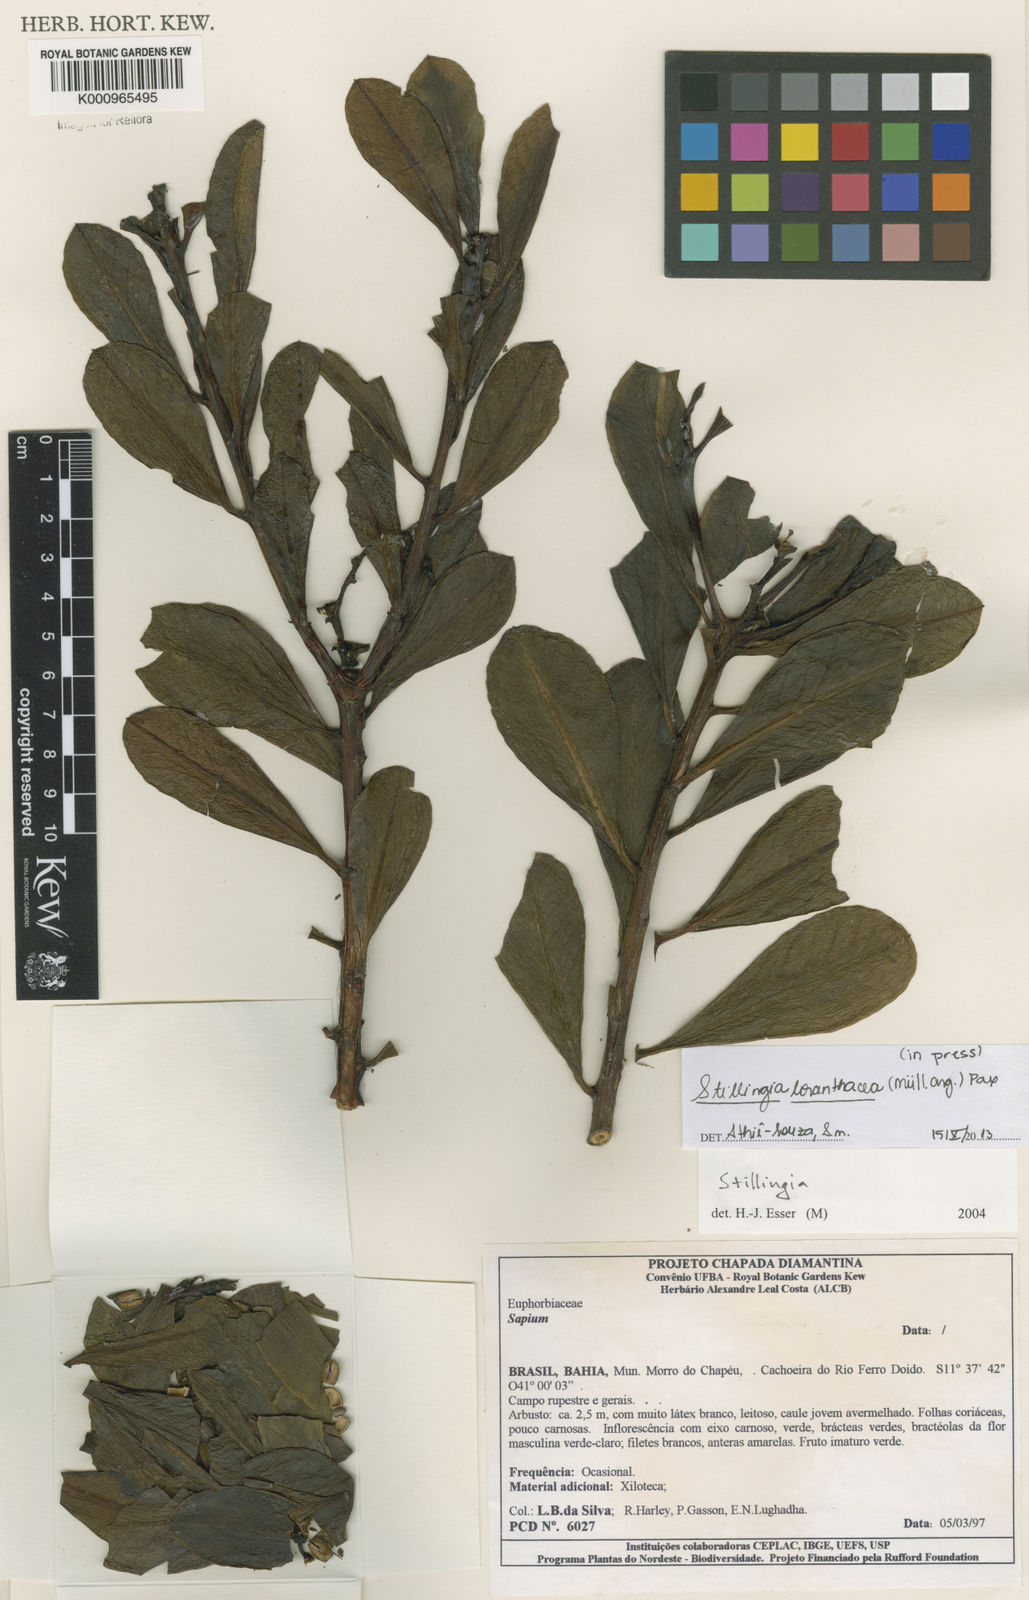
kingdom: Plantae
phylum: Tracheophyta
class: Magnoliopsida
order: Malpighiales
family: Euphorbiaceae
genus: Stillingia
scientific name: Stillingia saxatilis
